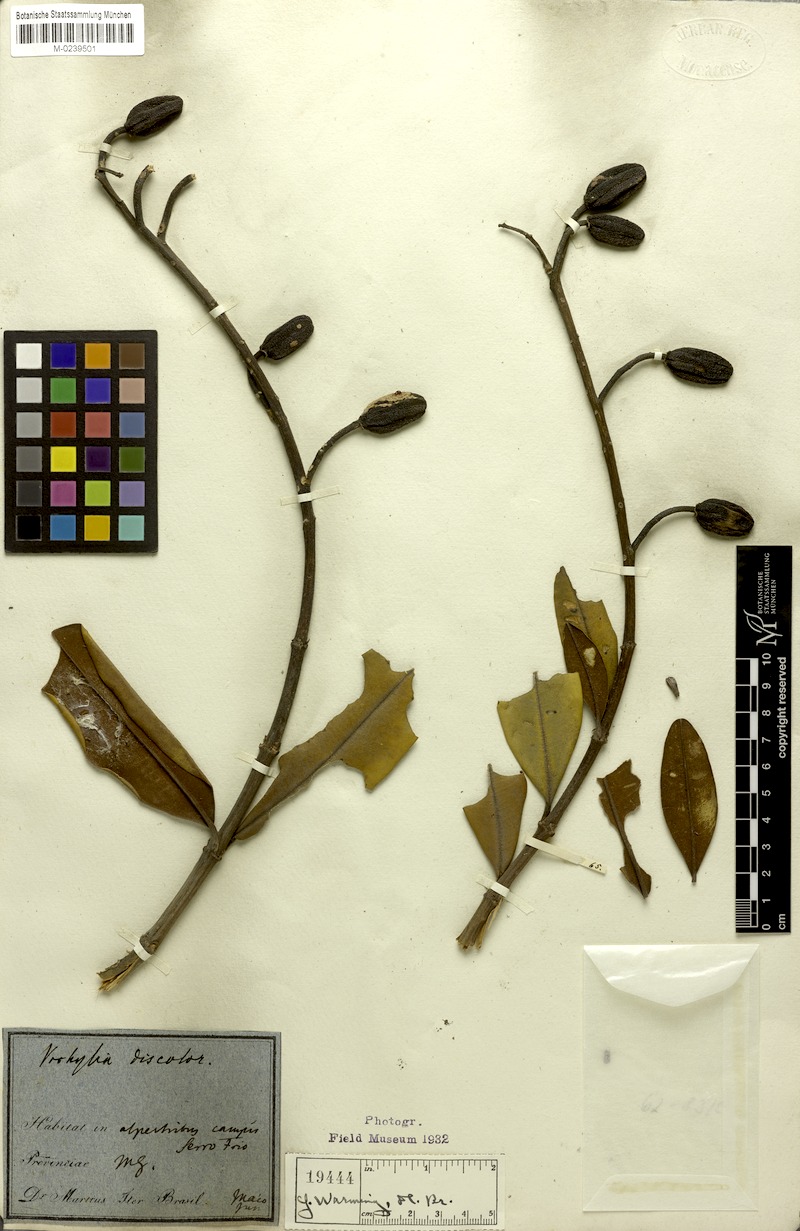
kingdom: Plantae
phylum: Tracheophyta
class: Magnoliopsida
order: Myrtales
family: Vochysiaceae
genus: Vochysia
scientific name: Vochysia discolor
